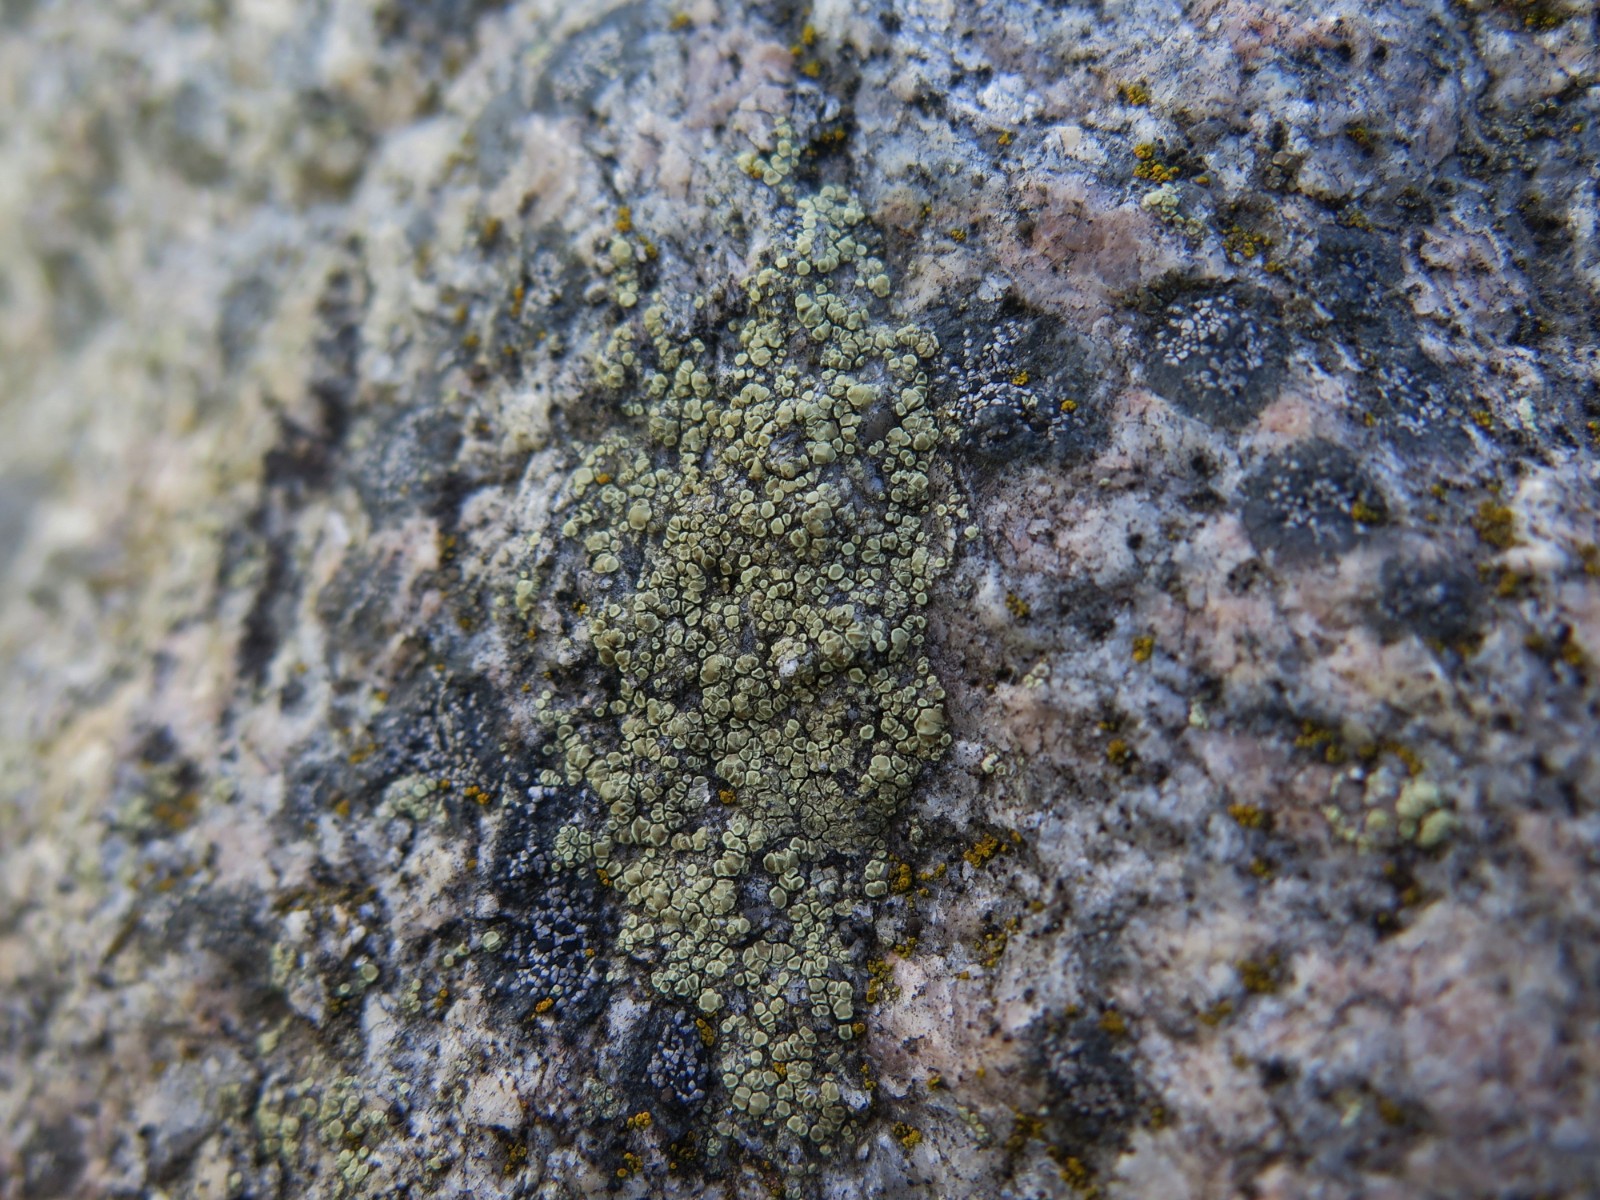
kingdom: Fungi
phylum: Ascomycota
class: Lecanoromycetes
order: Lecanorales
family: Lecanoraceae
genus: Lecanora
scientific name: Lecanora polytropa
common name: bleggrøn kantskivelav
